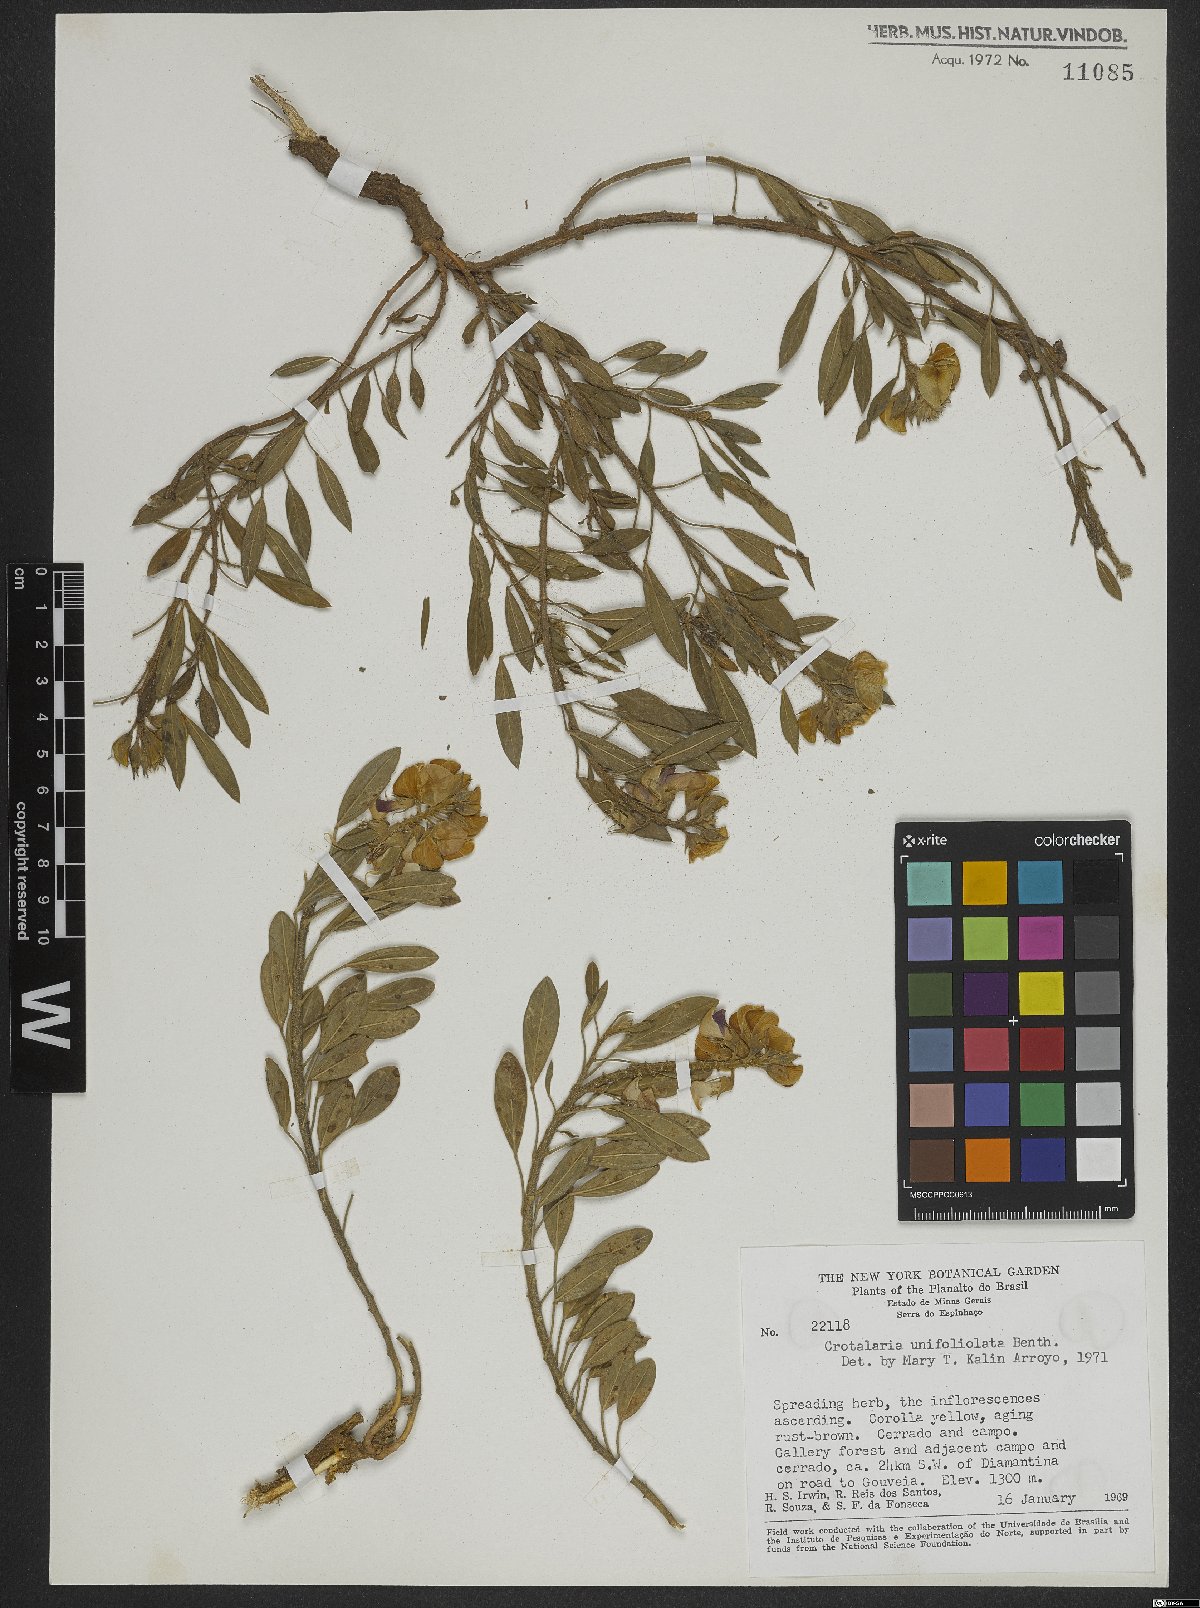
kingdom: Plantae
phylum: Tracheophyta
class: Magnoliopsida
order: Fabales
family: Fabaceae
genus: Crotalaria
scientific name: Crotalaria unifoliolata
